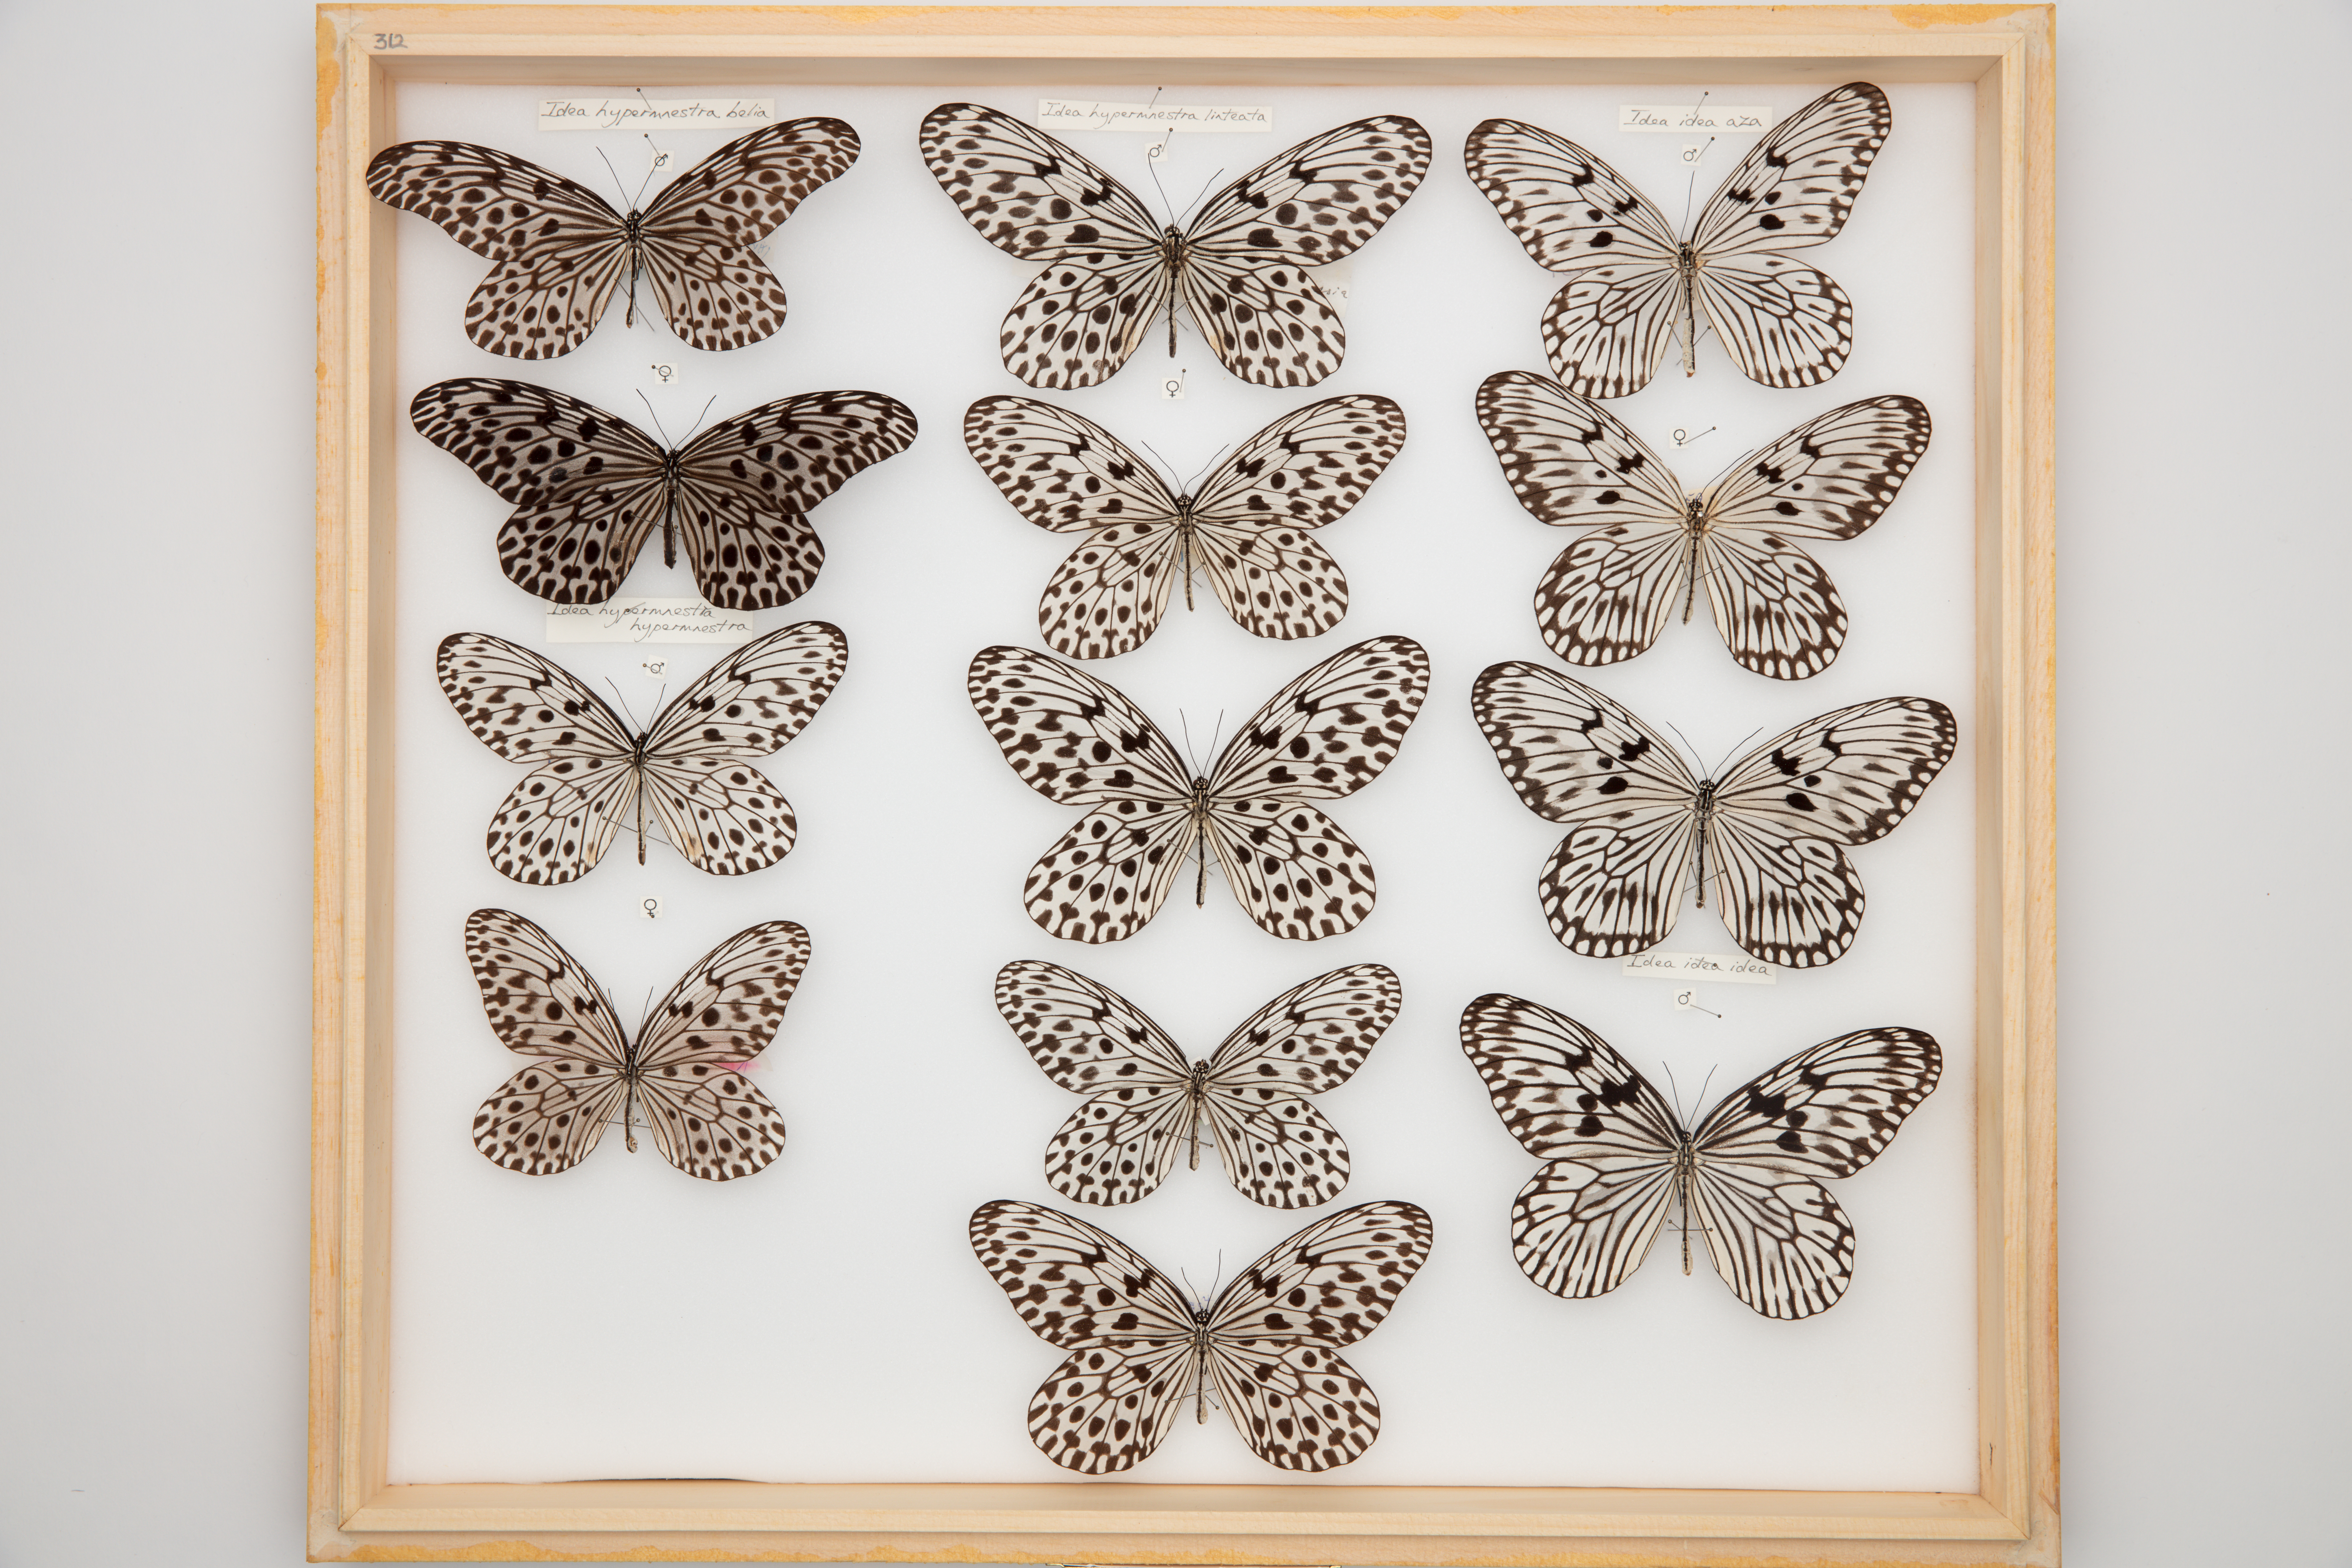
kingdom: Animalia
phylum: Arthropoda
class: Insecta
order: Lepidoptera
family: Nymphalidae
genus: Idea
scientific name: Idea idea
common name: Linnaeus' idea
